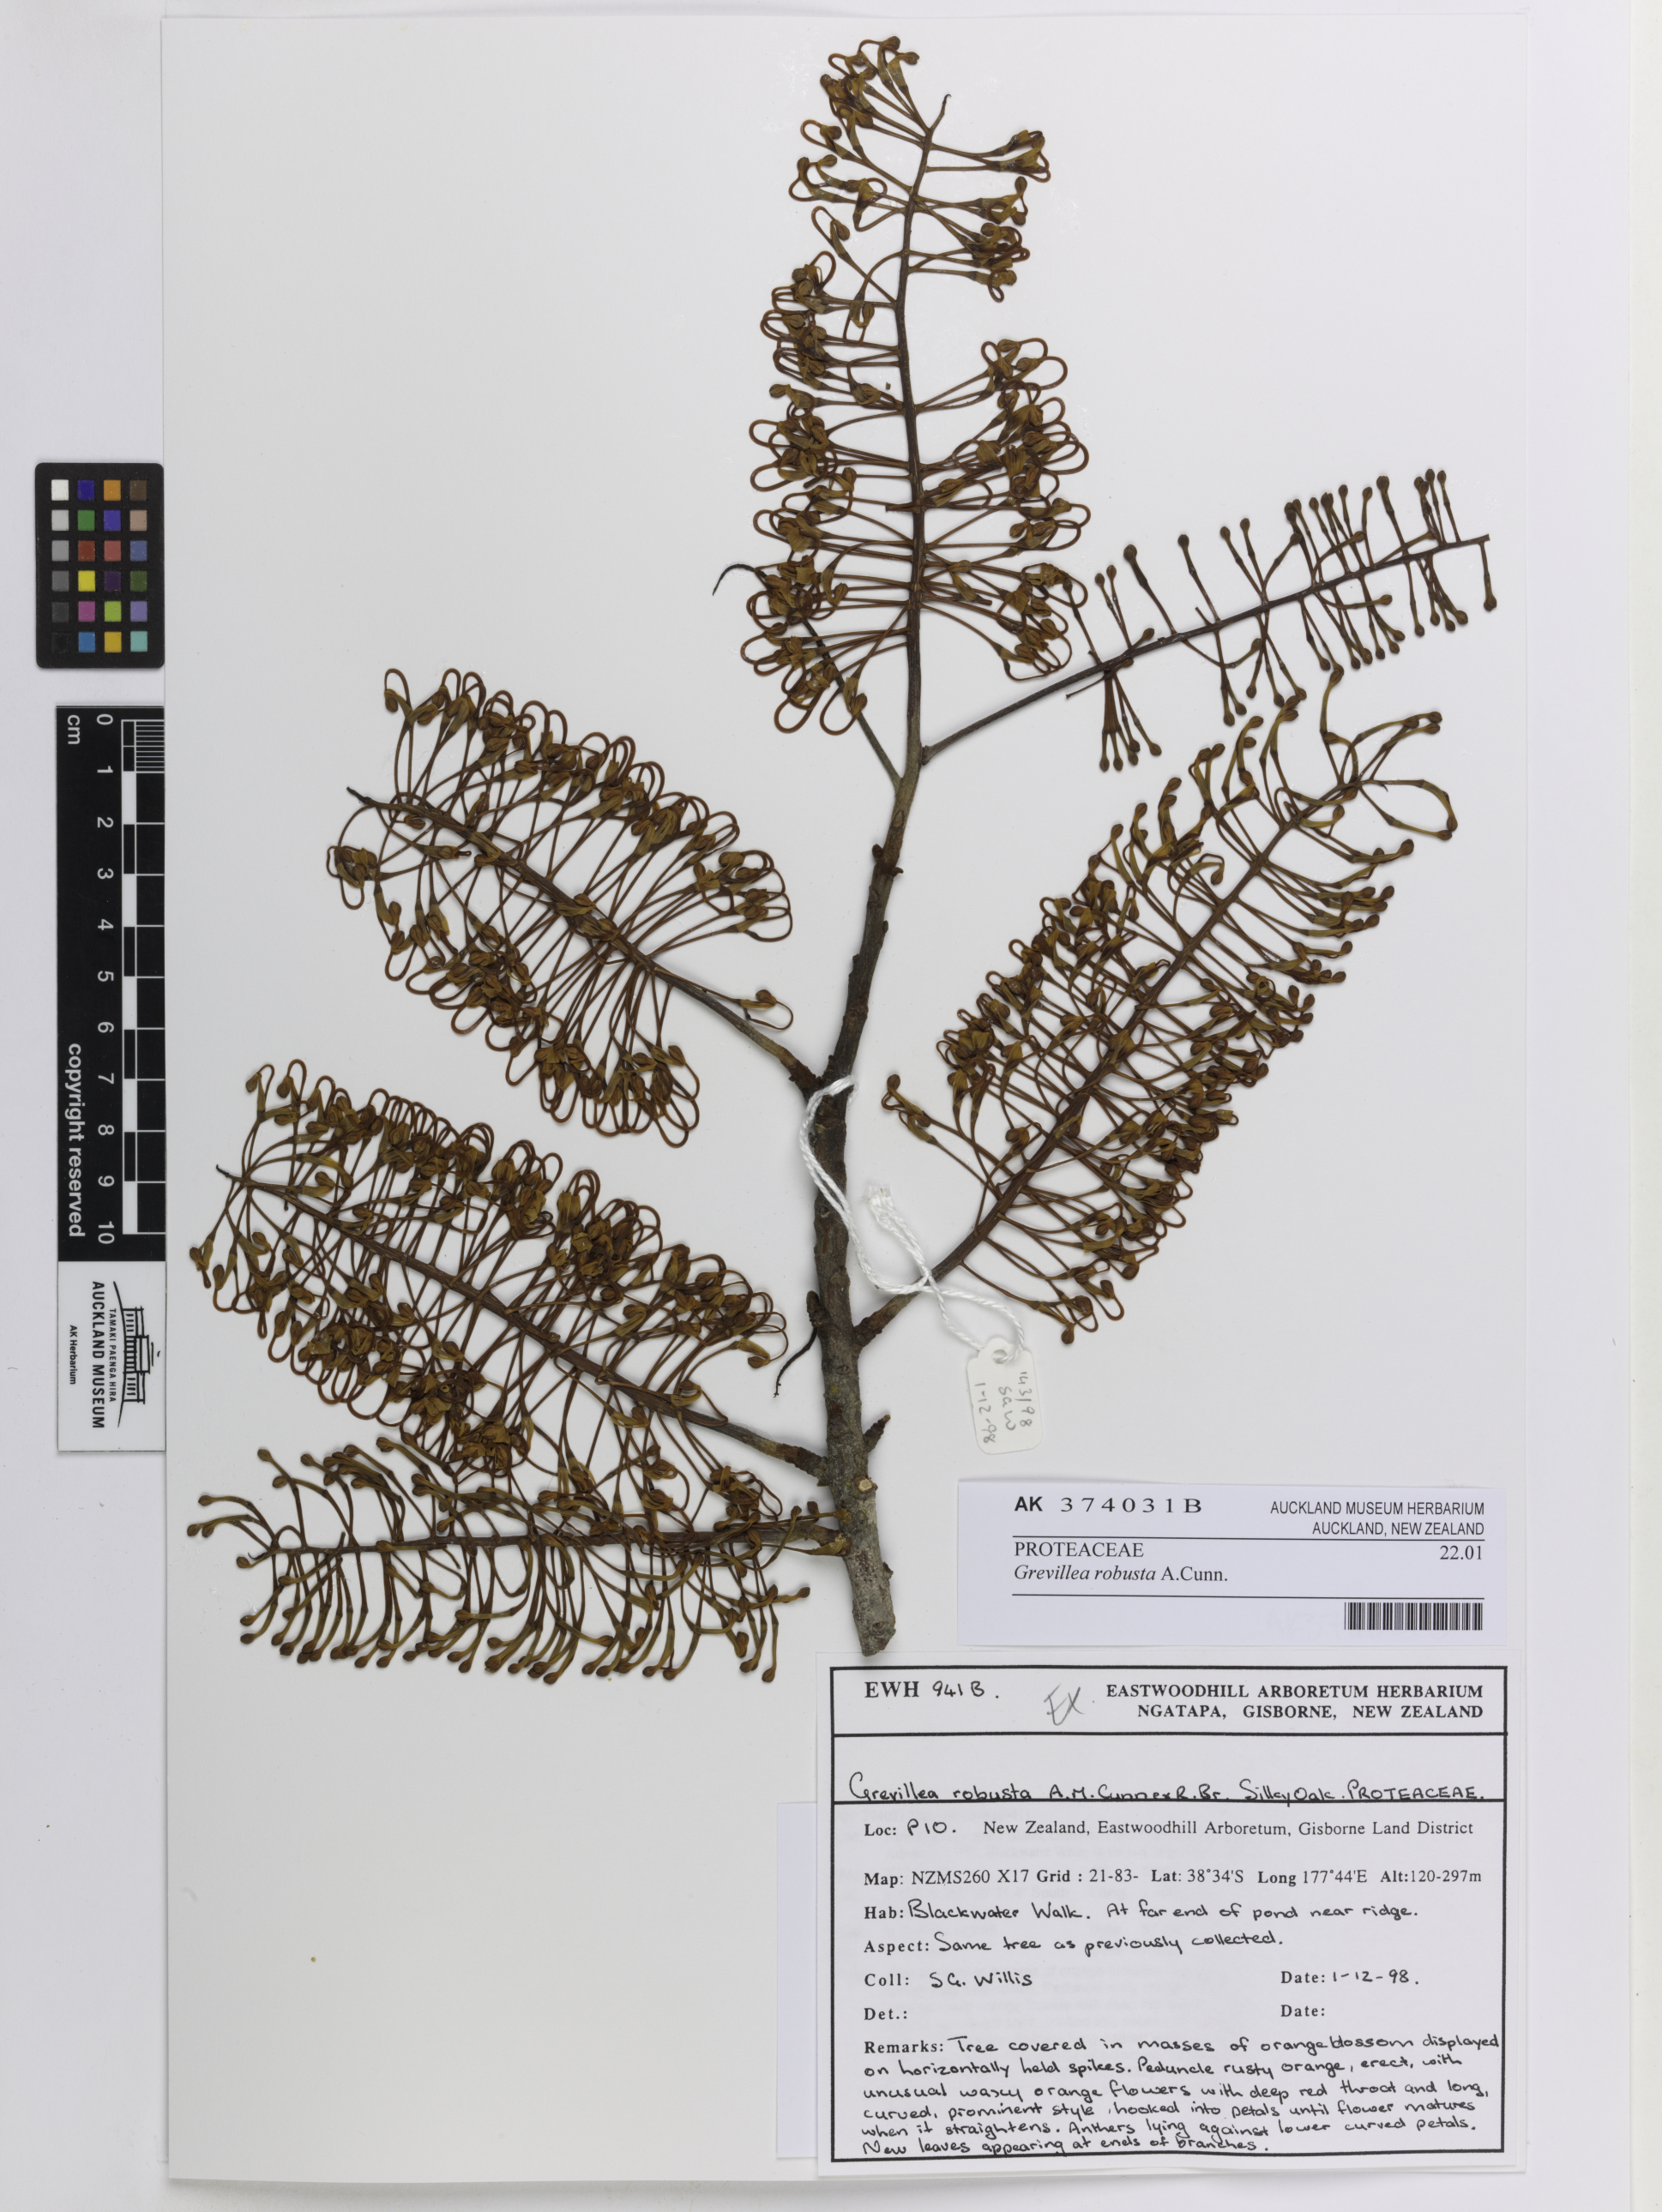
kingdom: Plantae
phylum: Tracheophyta
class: Magnoliopsida
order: Proteales
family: Proteaceae
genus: Grevillea
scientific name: Grevillea robusta
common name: Silkoak
